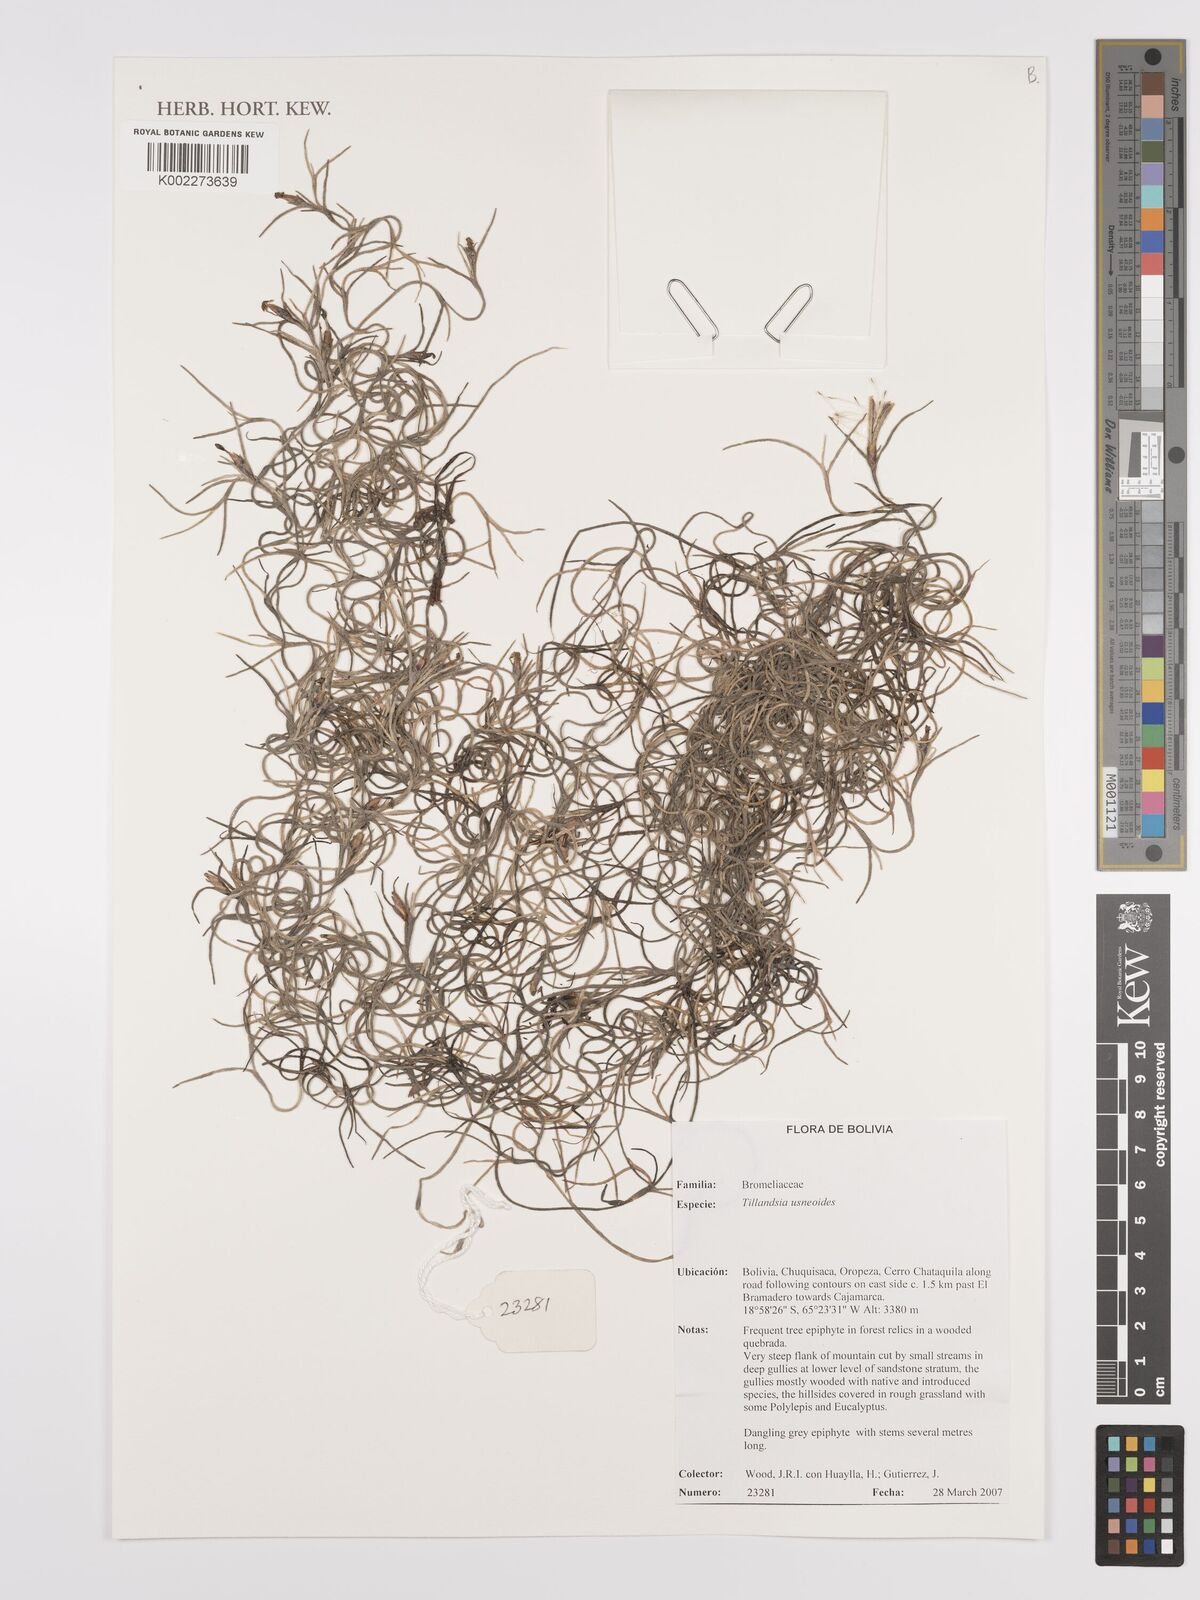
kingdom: Plantae
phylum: Tracheophyta
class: Liliopsida
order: Poales
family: Bromeliaceae
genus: Tillandsia
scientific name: Tillandsia usneoides
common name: Spanish moss
